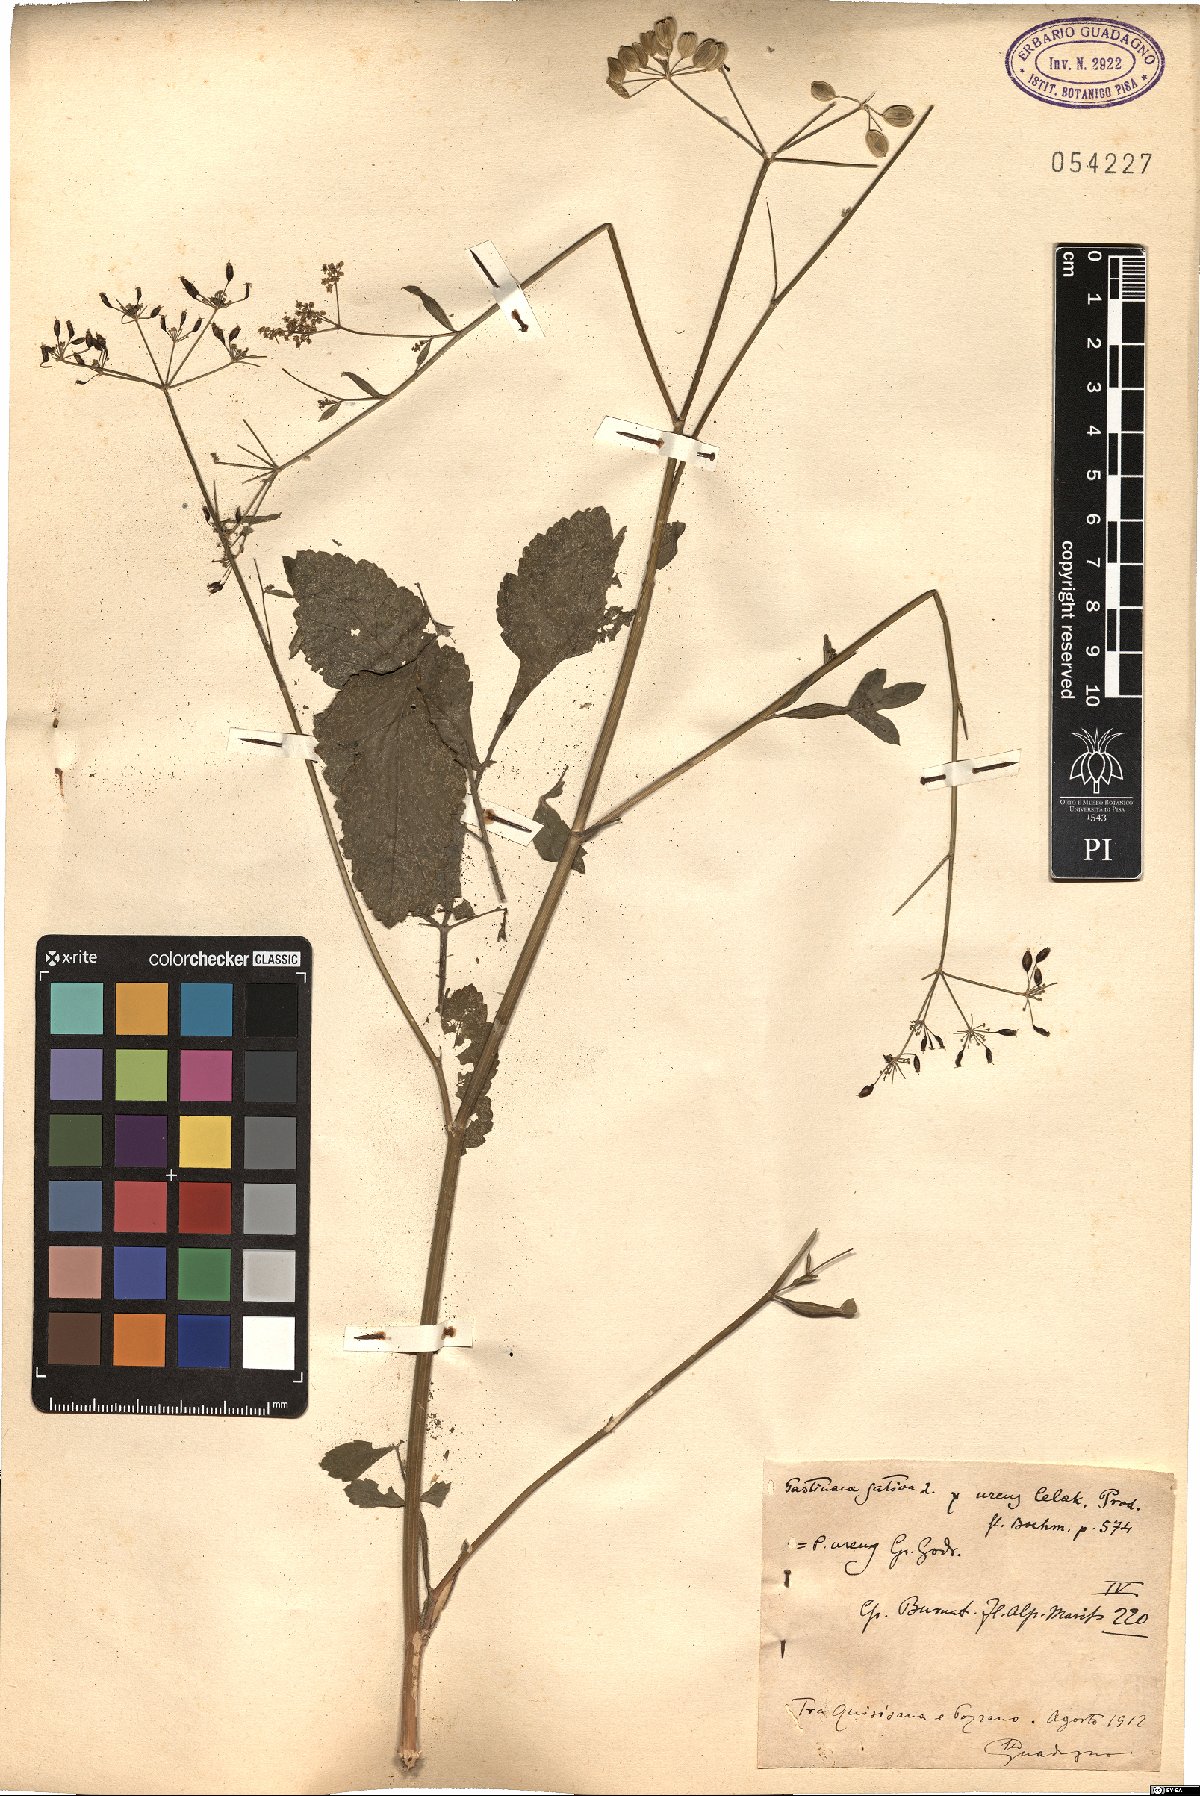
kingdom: Plantae
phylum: Tracheophyta
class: Magnoliopsida
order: Apiales
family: Apiaceae
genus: Pastinaca
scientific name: Pastinaca sativa
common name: Wild parsnip
